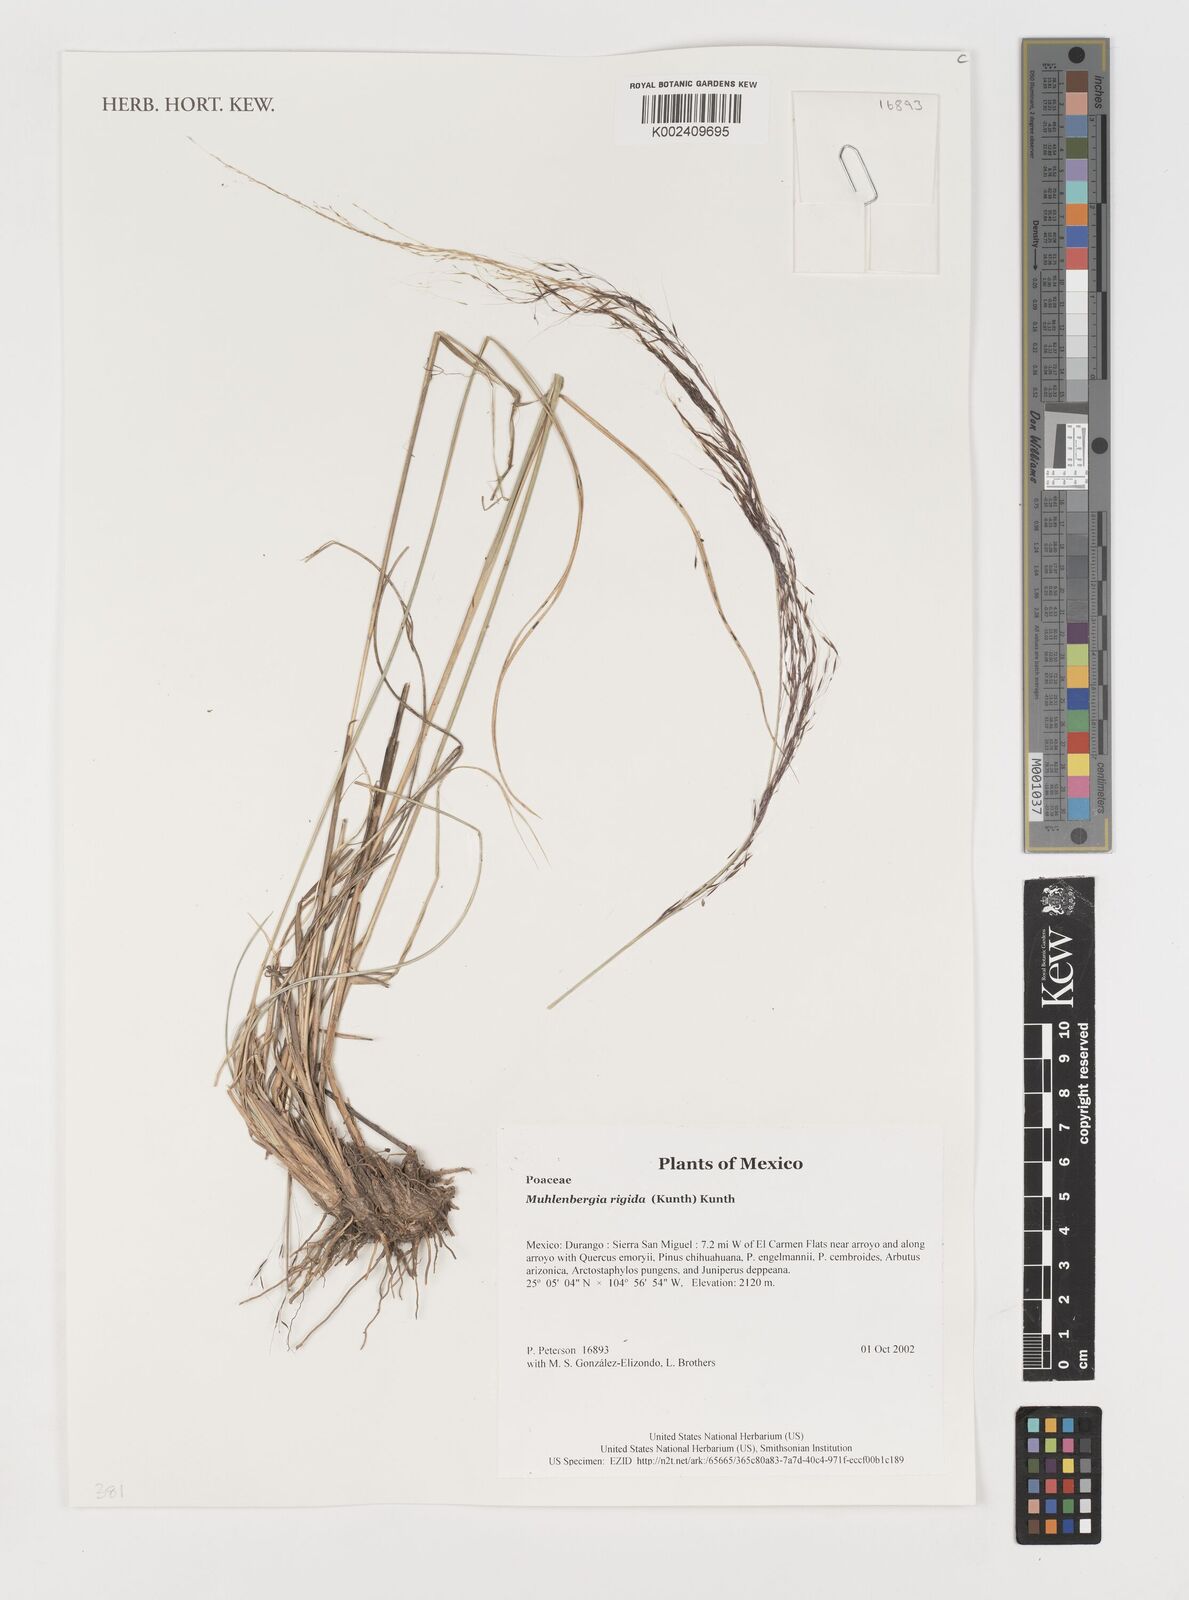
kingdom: Plantae
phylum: Tracheophyta
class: Liliopsida
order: Poales
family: Poaceae
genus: Muhlenbergia
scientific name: Muhlenbergia rigida
